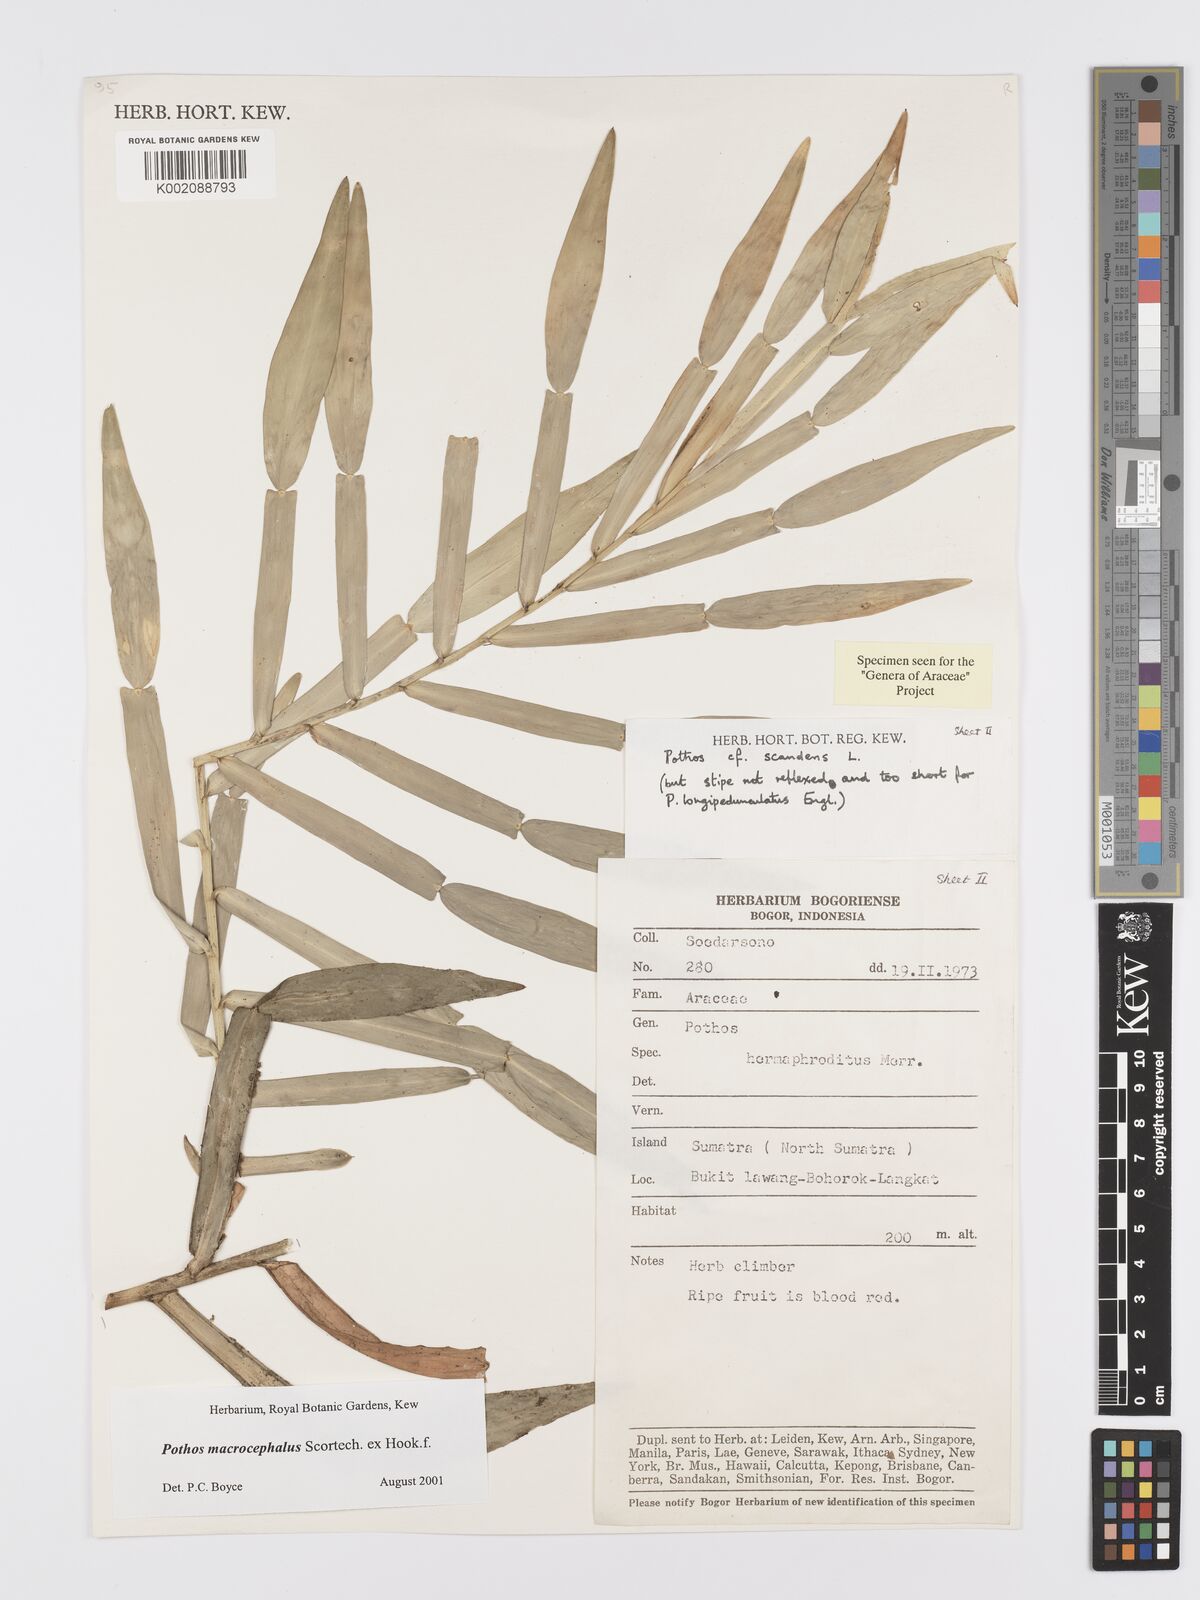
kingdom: Plantae
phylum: Tracheophyta
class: Liliopsida
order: Alismatales
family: Araceae
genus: Pothos
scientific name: Pothos macrocephalus
